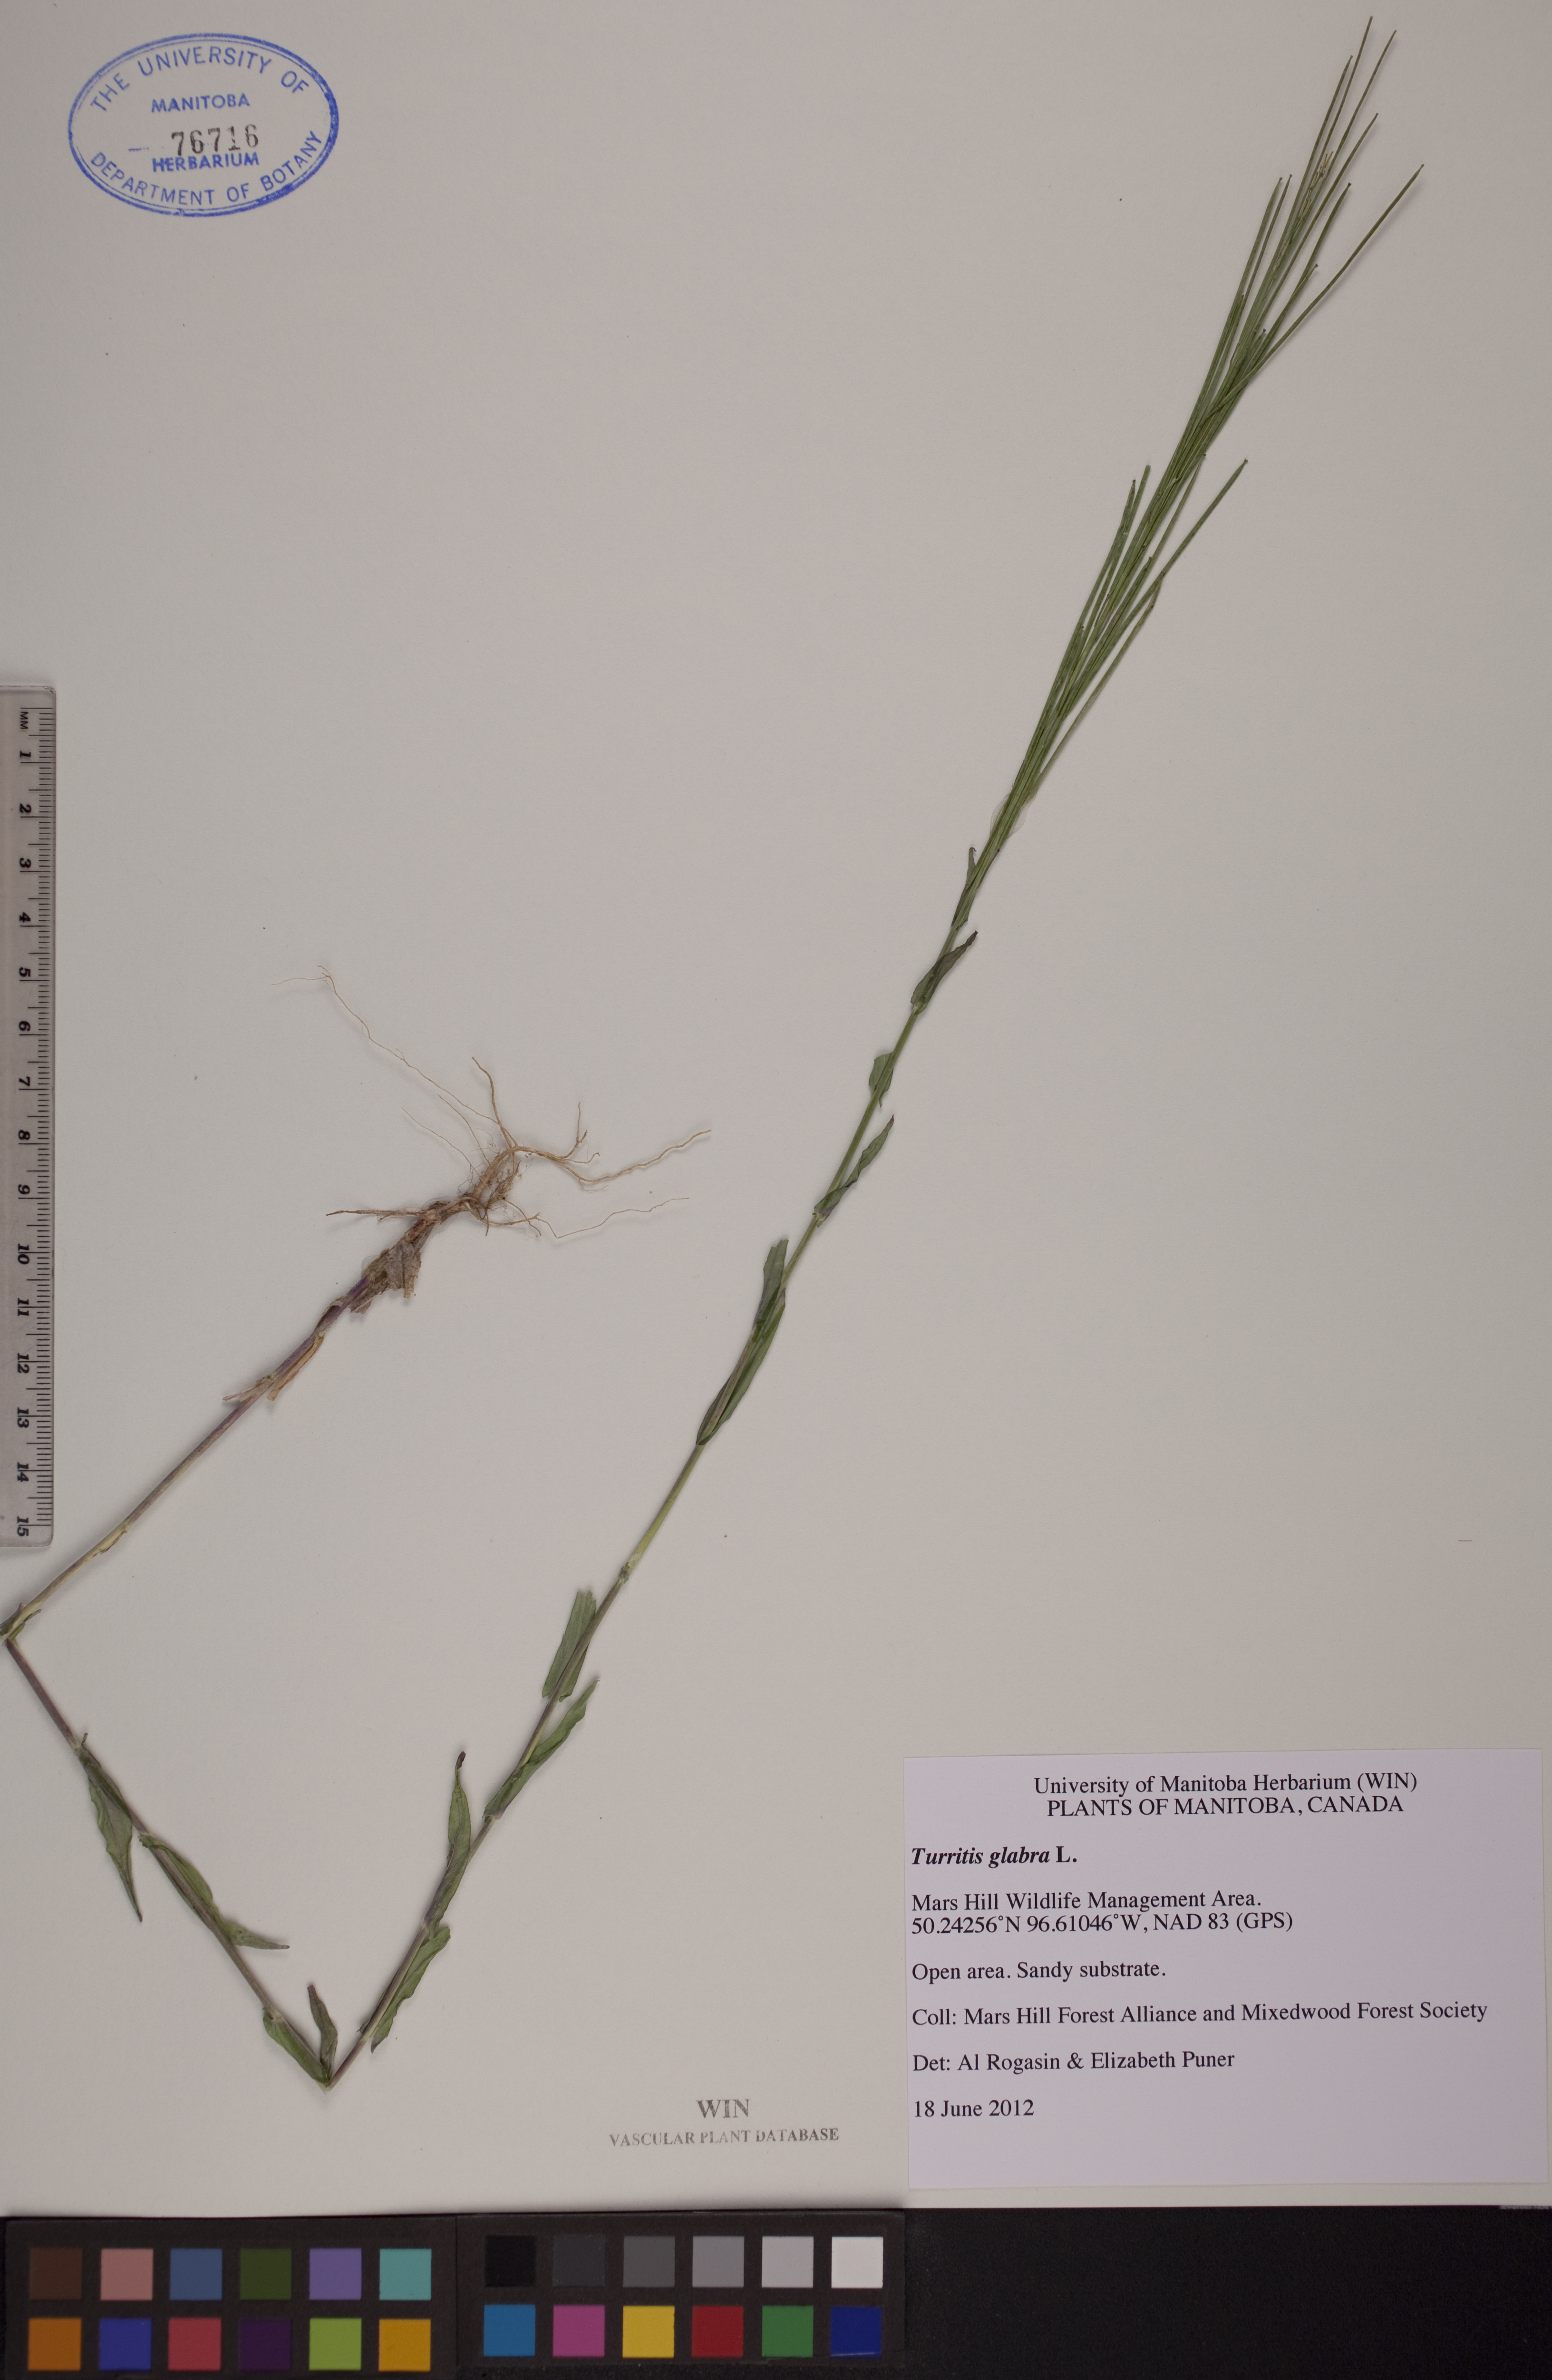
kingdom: Plantae
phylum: Tracheophyta
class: Magnoliopsida
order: Brassicales
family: Brassicaceae
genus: Turritis
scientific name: Turritis glabra
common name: Tower rockcress
